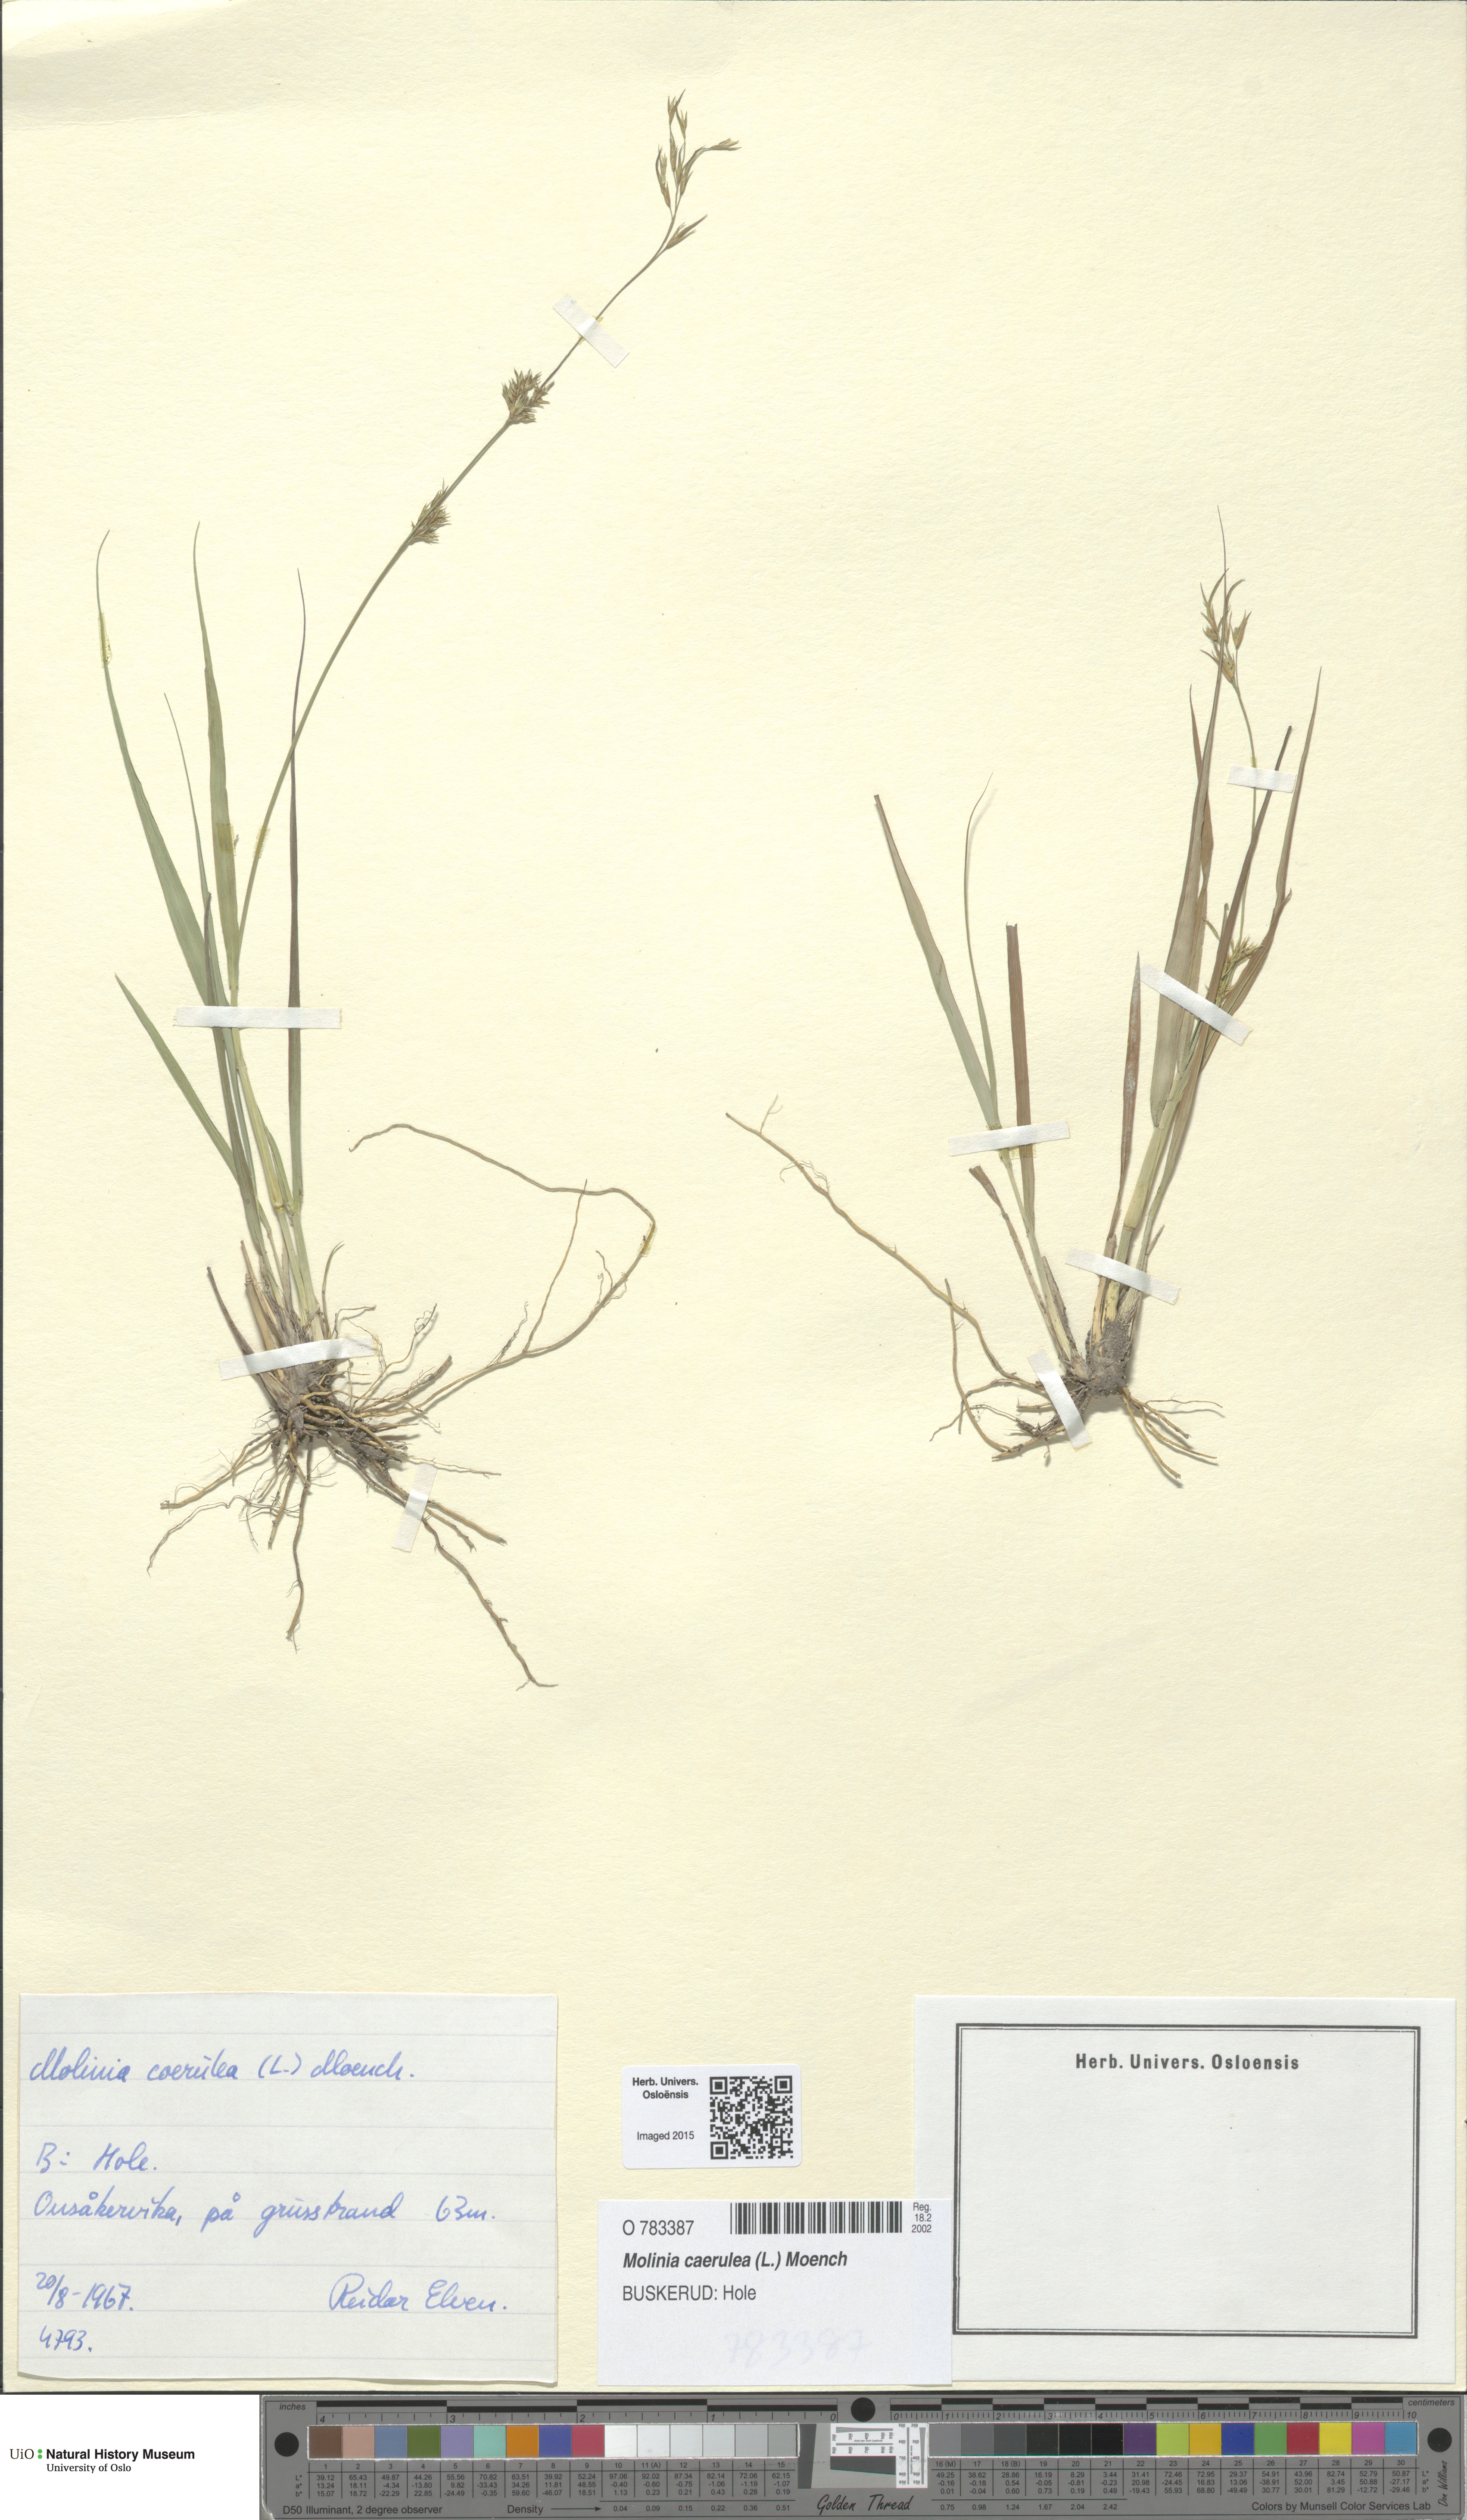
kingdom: Plantae
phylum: Tracheophyta
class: Liliopsida
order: Poales
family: Poaceae
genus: Molinia
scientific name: Molinia caerulea
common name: Purple moor-grass
